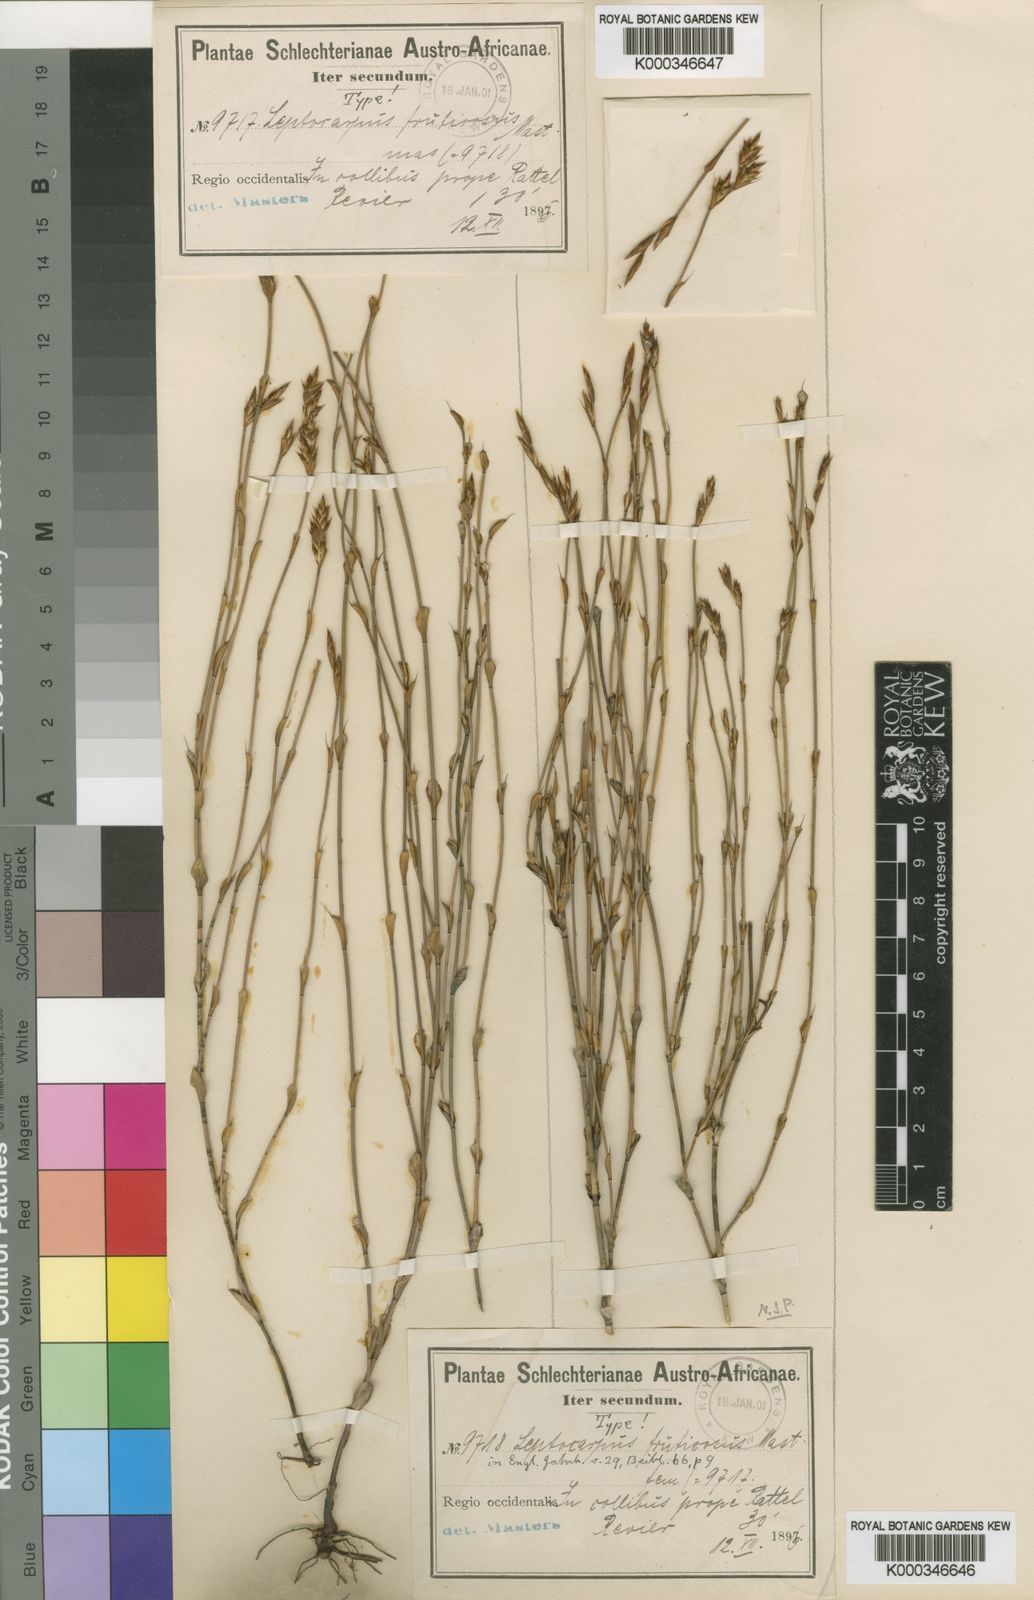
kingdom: Plantae
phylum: Tracheophyta
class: Liliopsida
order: Poales
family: Restionaceae
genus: Restio
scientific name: Restio calcicola
